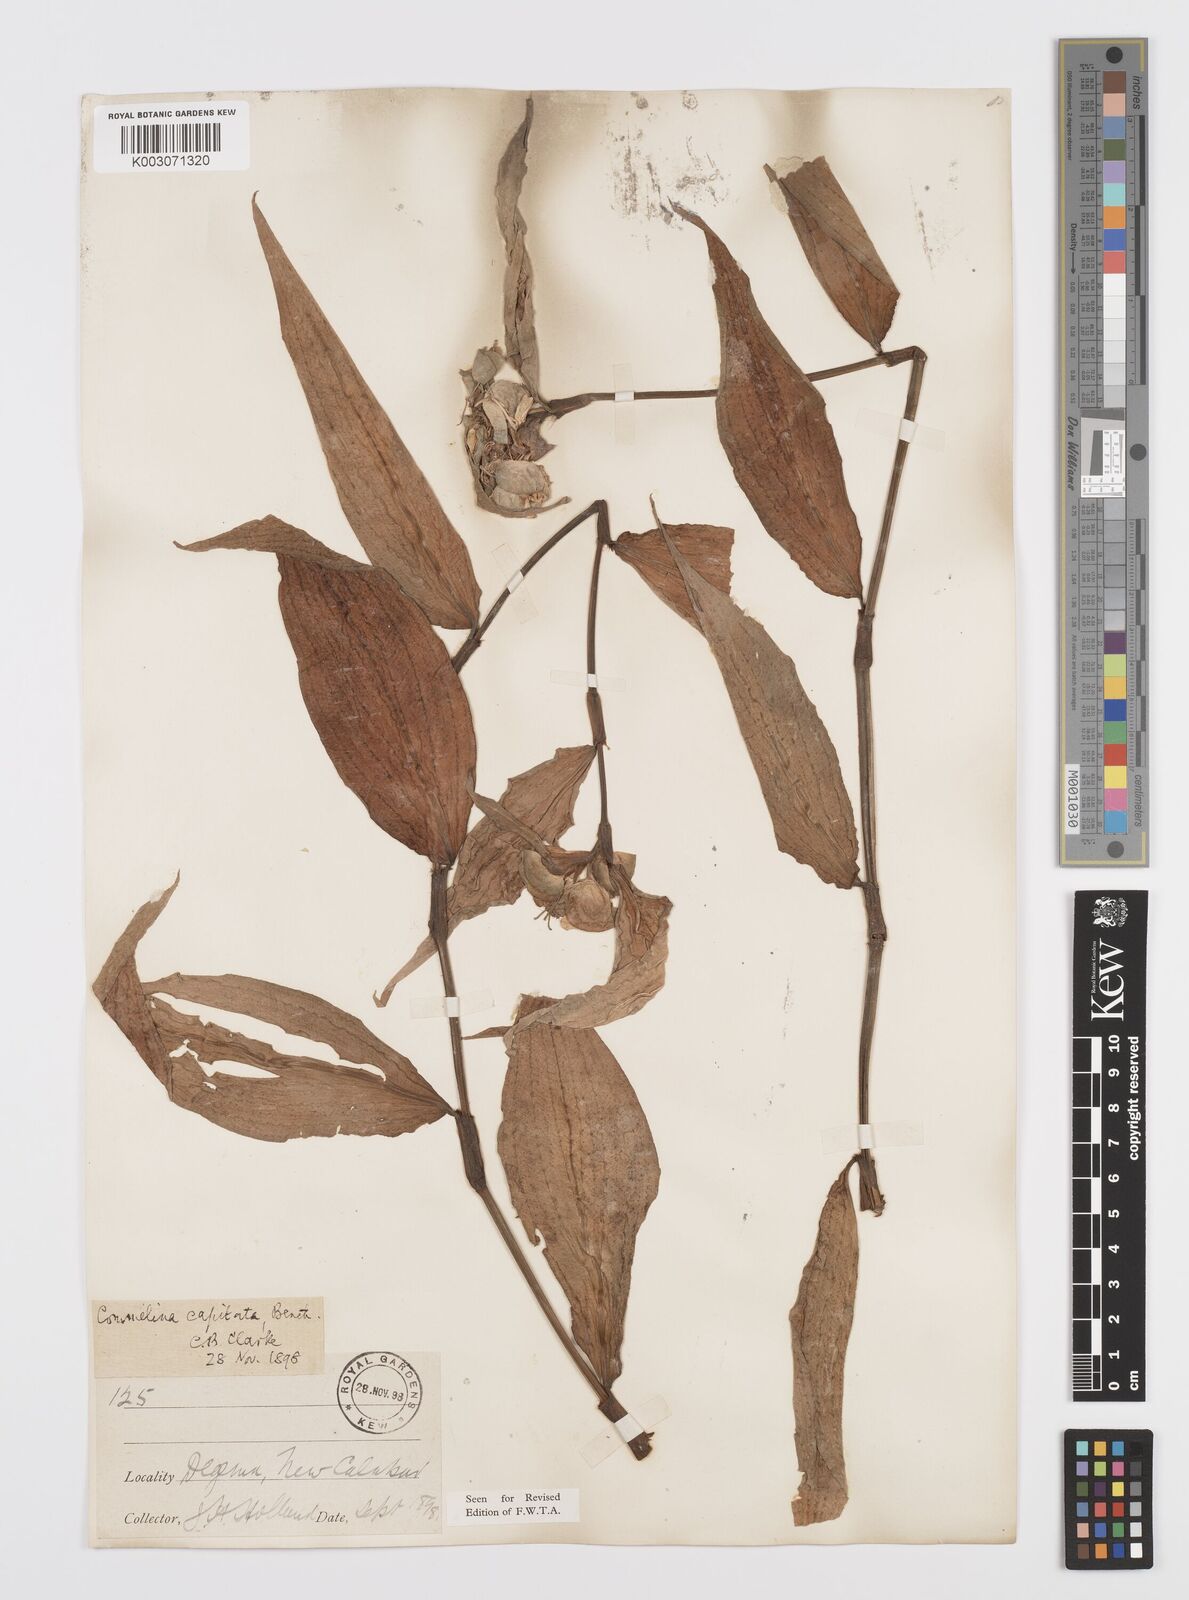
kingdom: Plantae
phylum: Tracheophyta
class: Liliopsida
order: Commelinales
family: Commelinaceae
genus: Commelina
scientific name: Commelina capitata
